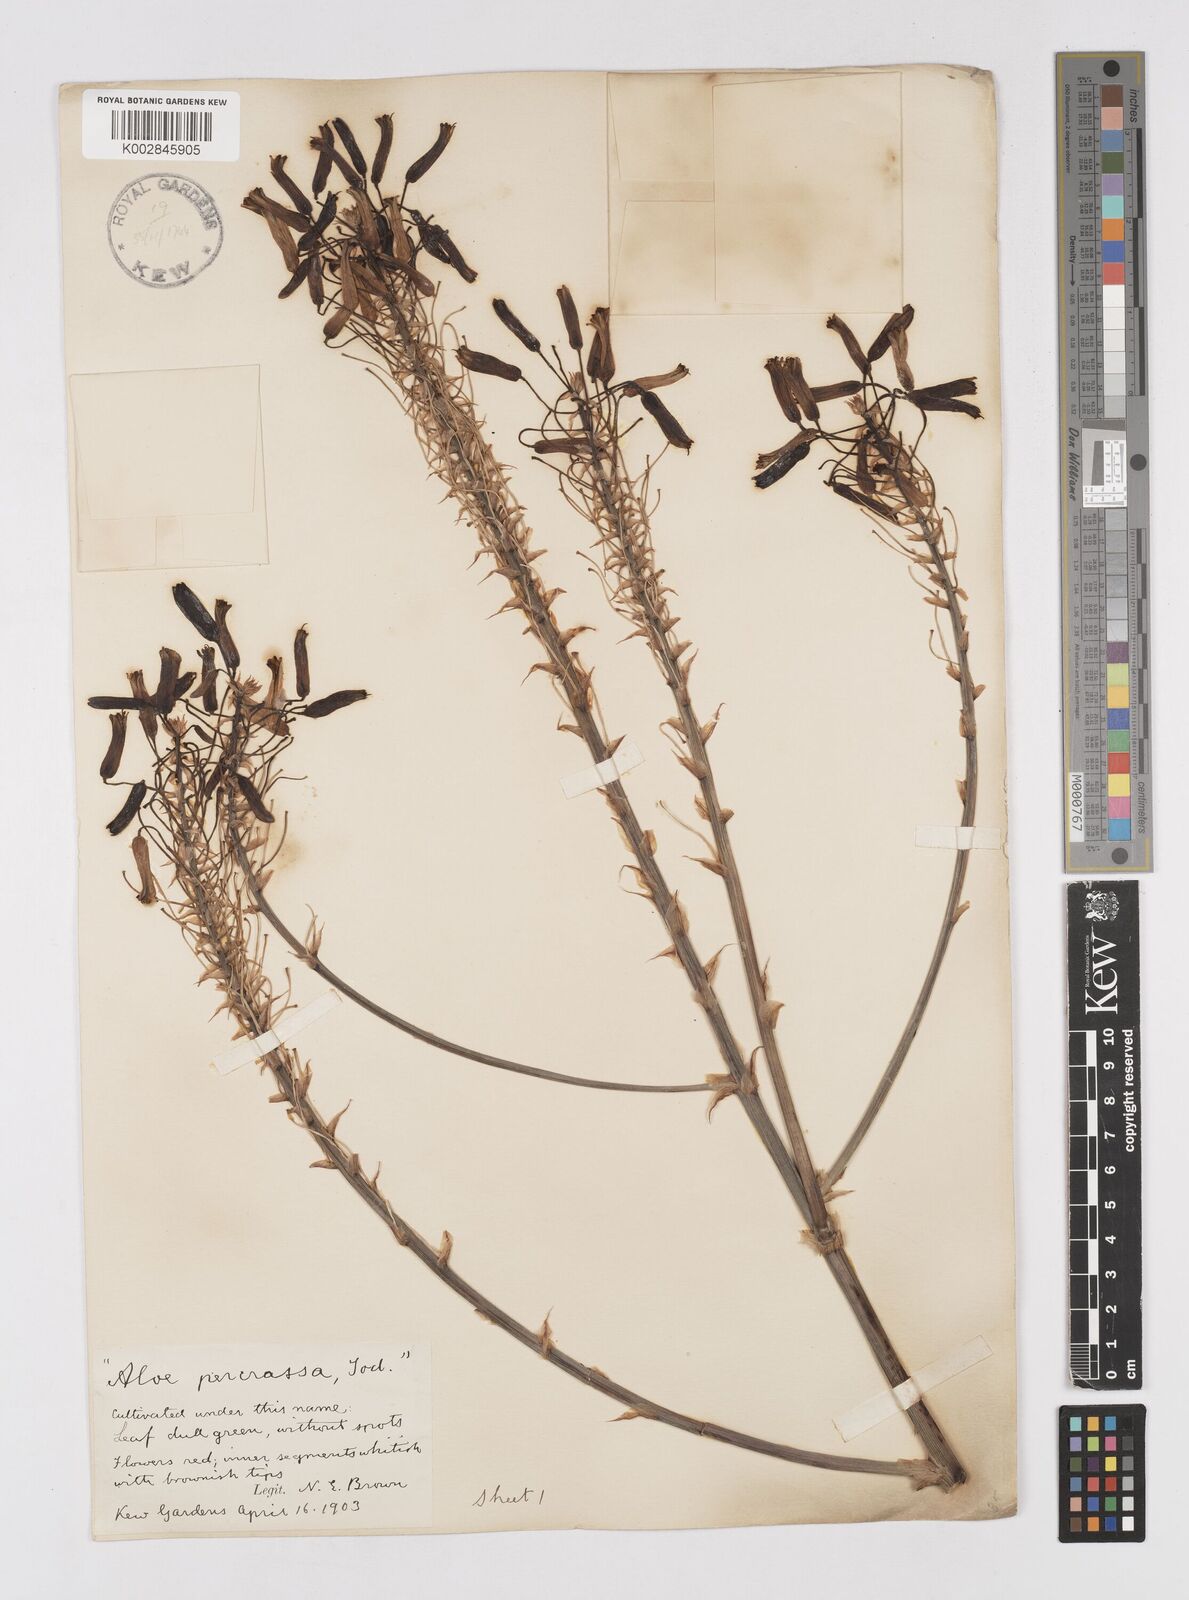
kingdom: Plantae
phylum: Tracheophyta
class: Liliopsida
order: Asparagales
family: Asphodelaceae
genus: Aloe
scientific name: Aloe percrassa
